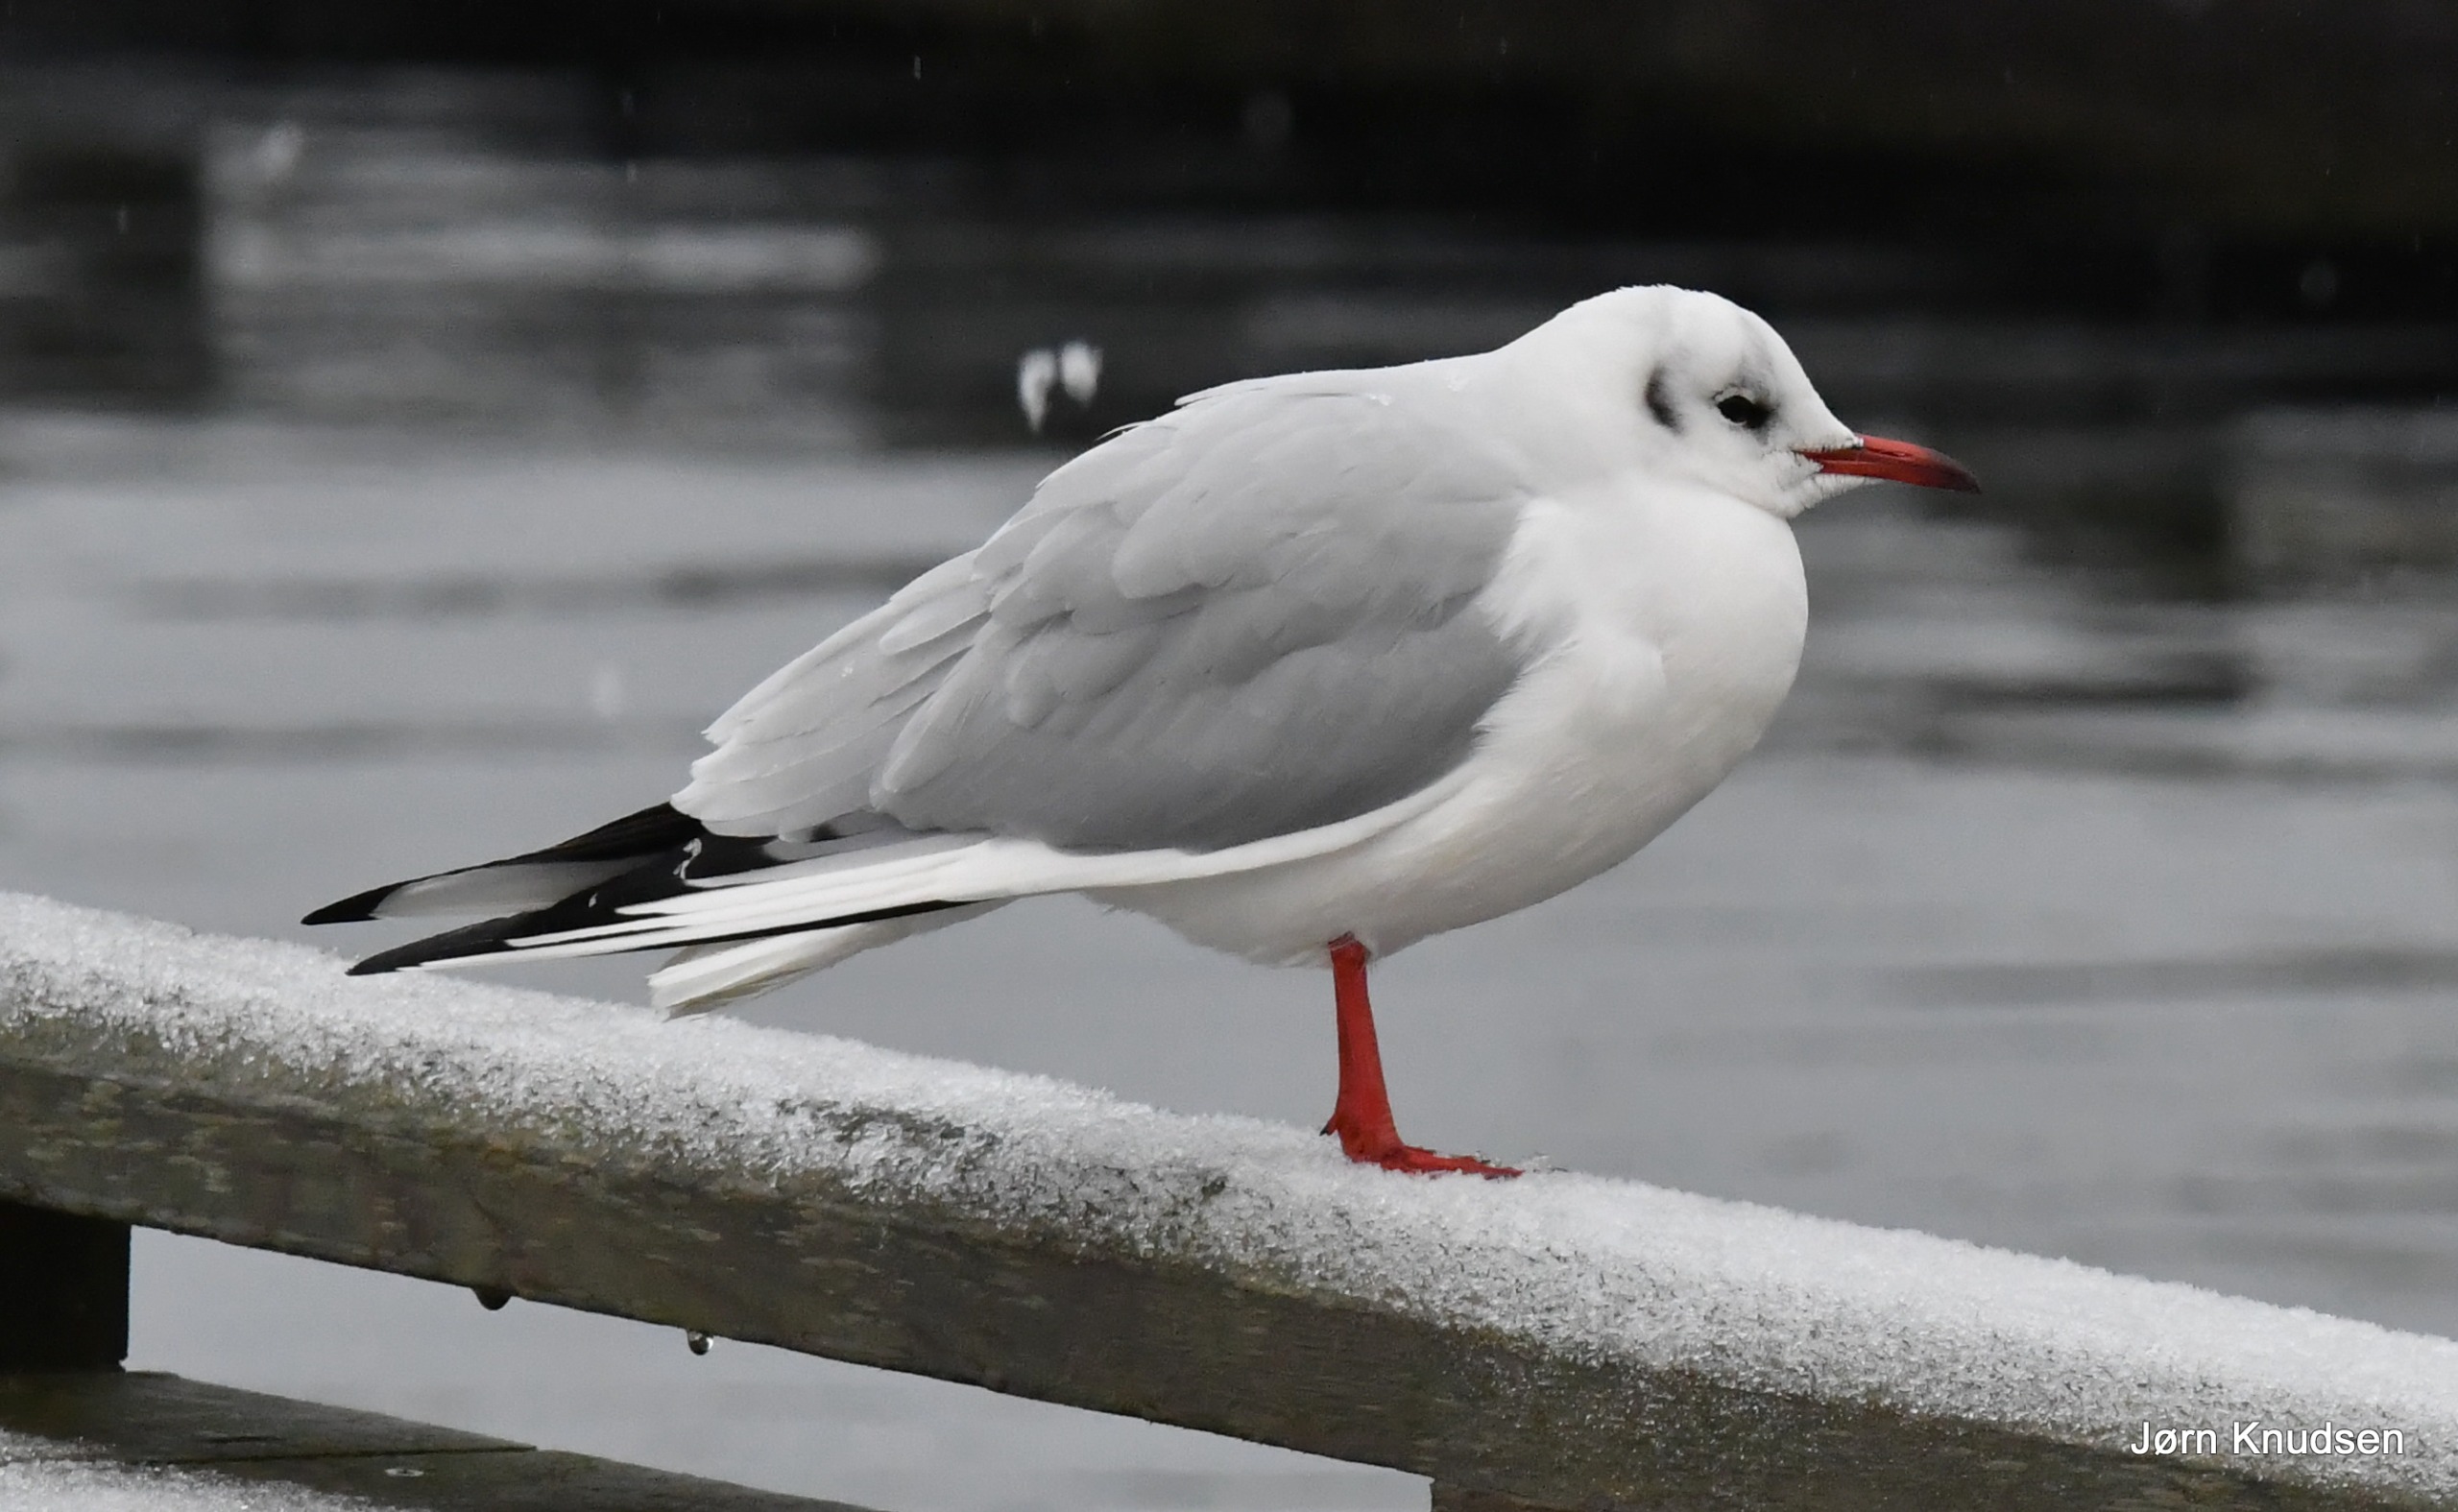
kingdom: Animalia
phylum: Chordata
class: Aves
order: Charadriiformes
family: Laridae
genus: Chroicocephalus
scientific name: Chroicocephalus ridibundus
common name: Hættemåge
